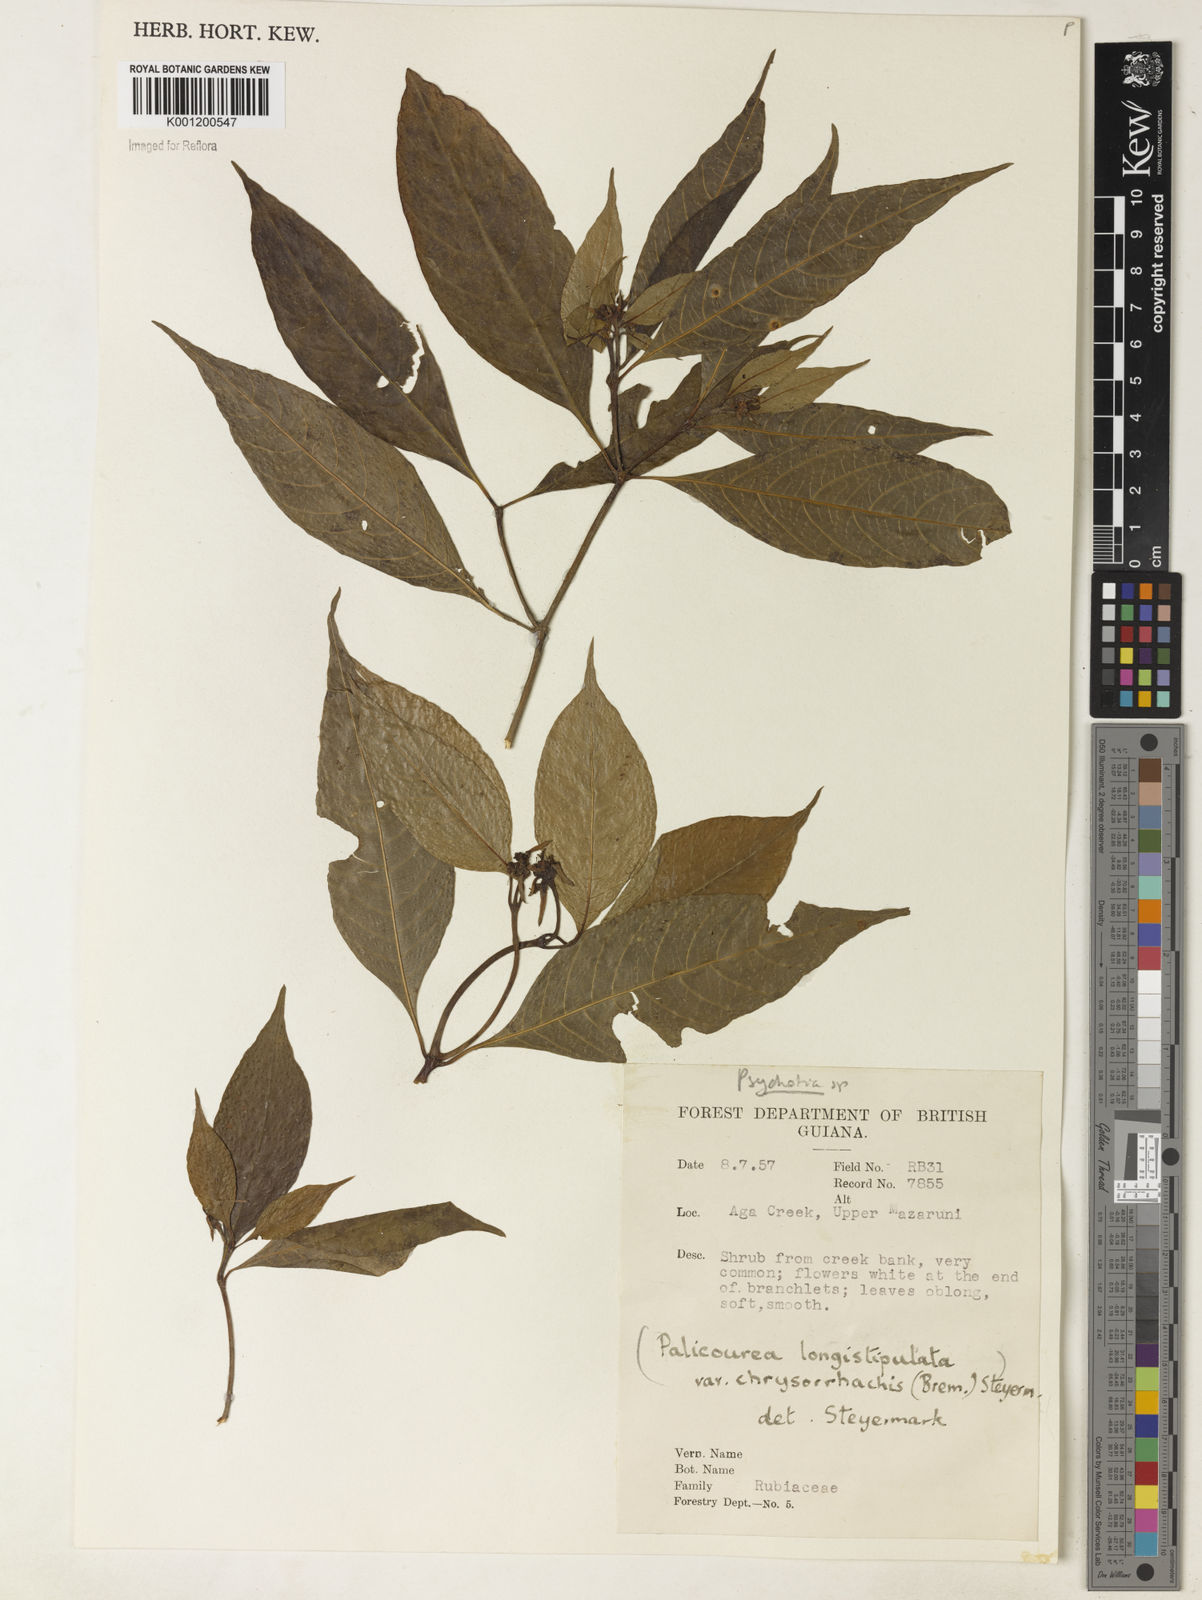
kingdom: Plantae
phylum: Tracheophyta
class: Magnoliopsida
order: Gentianales
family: Rubiaceae
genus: Psychotria
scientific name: Psychotria
